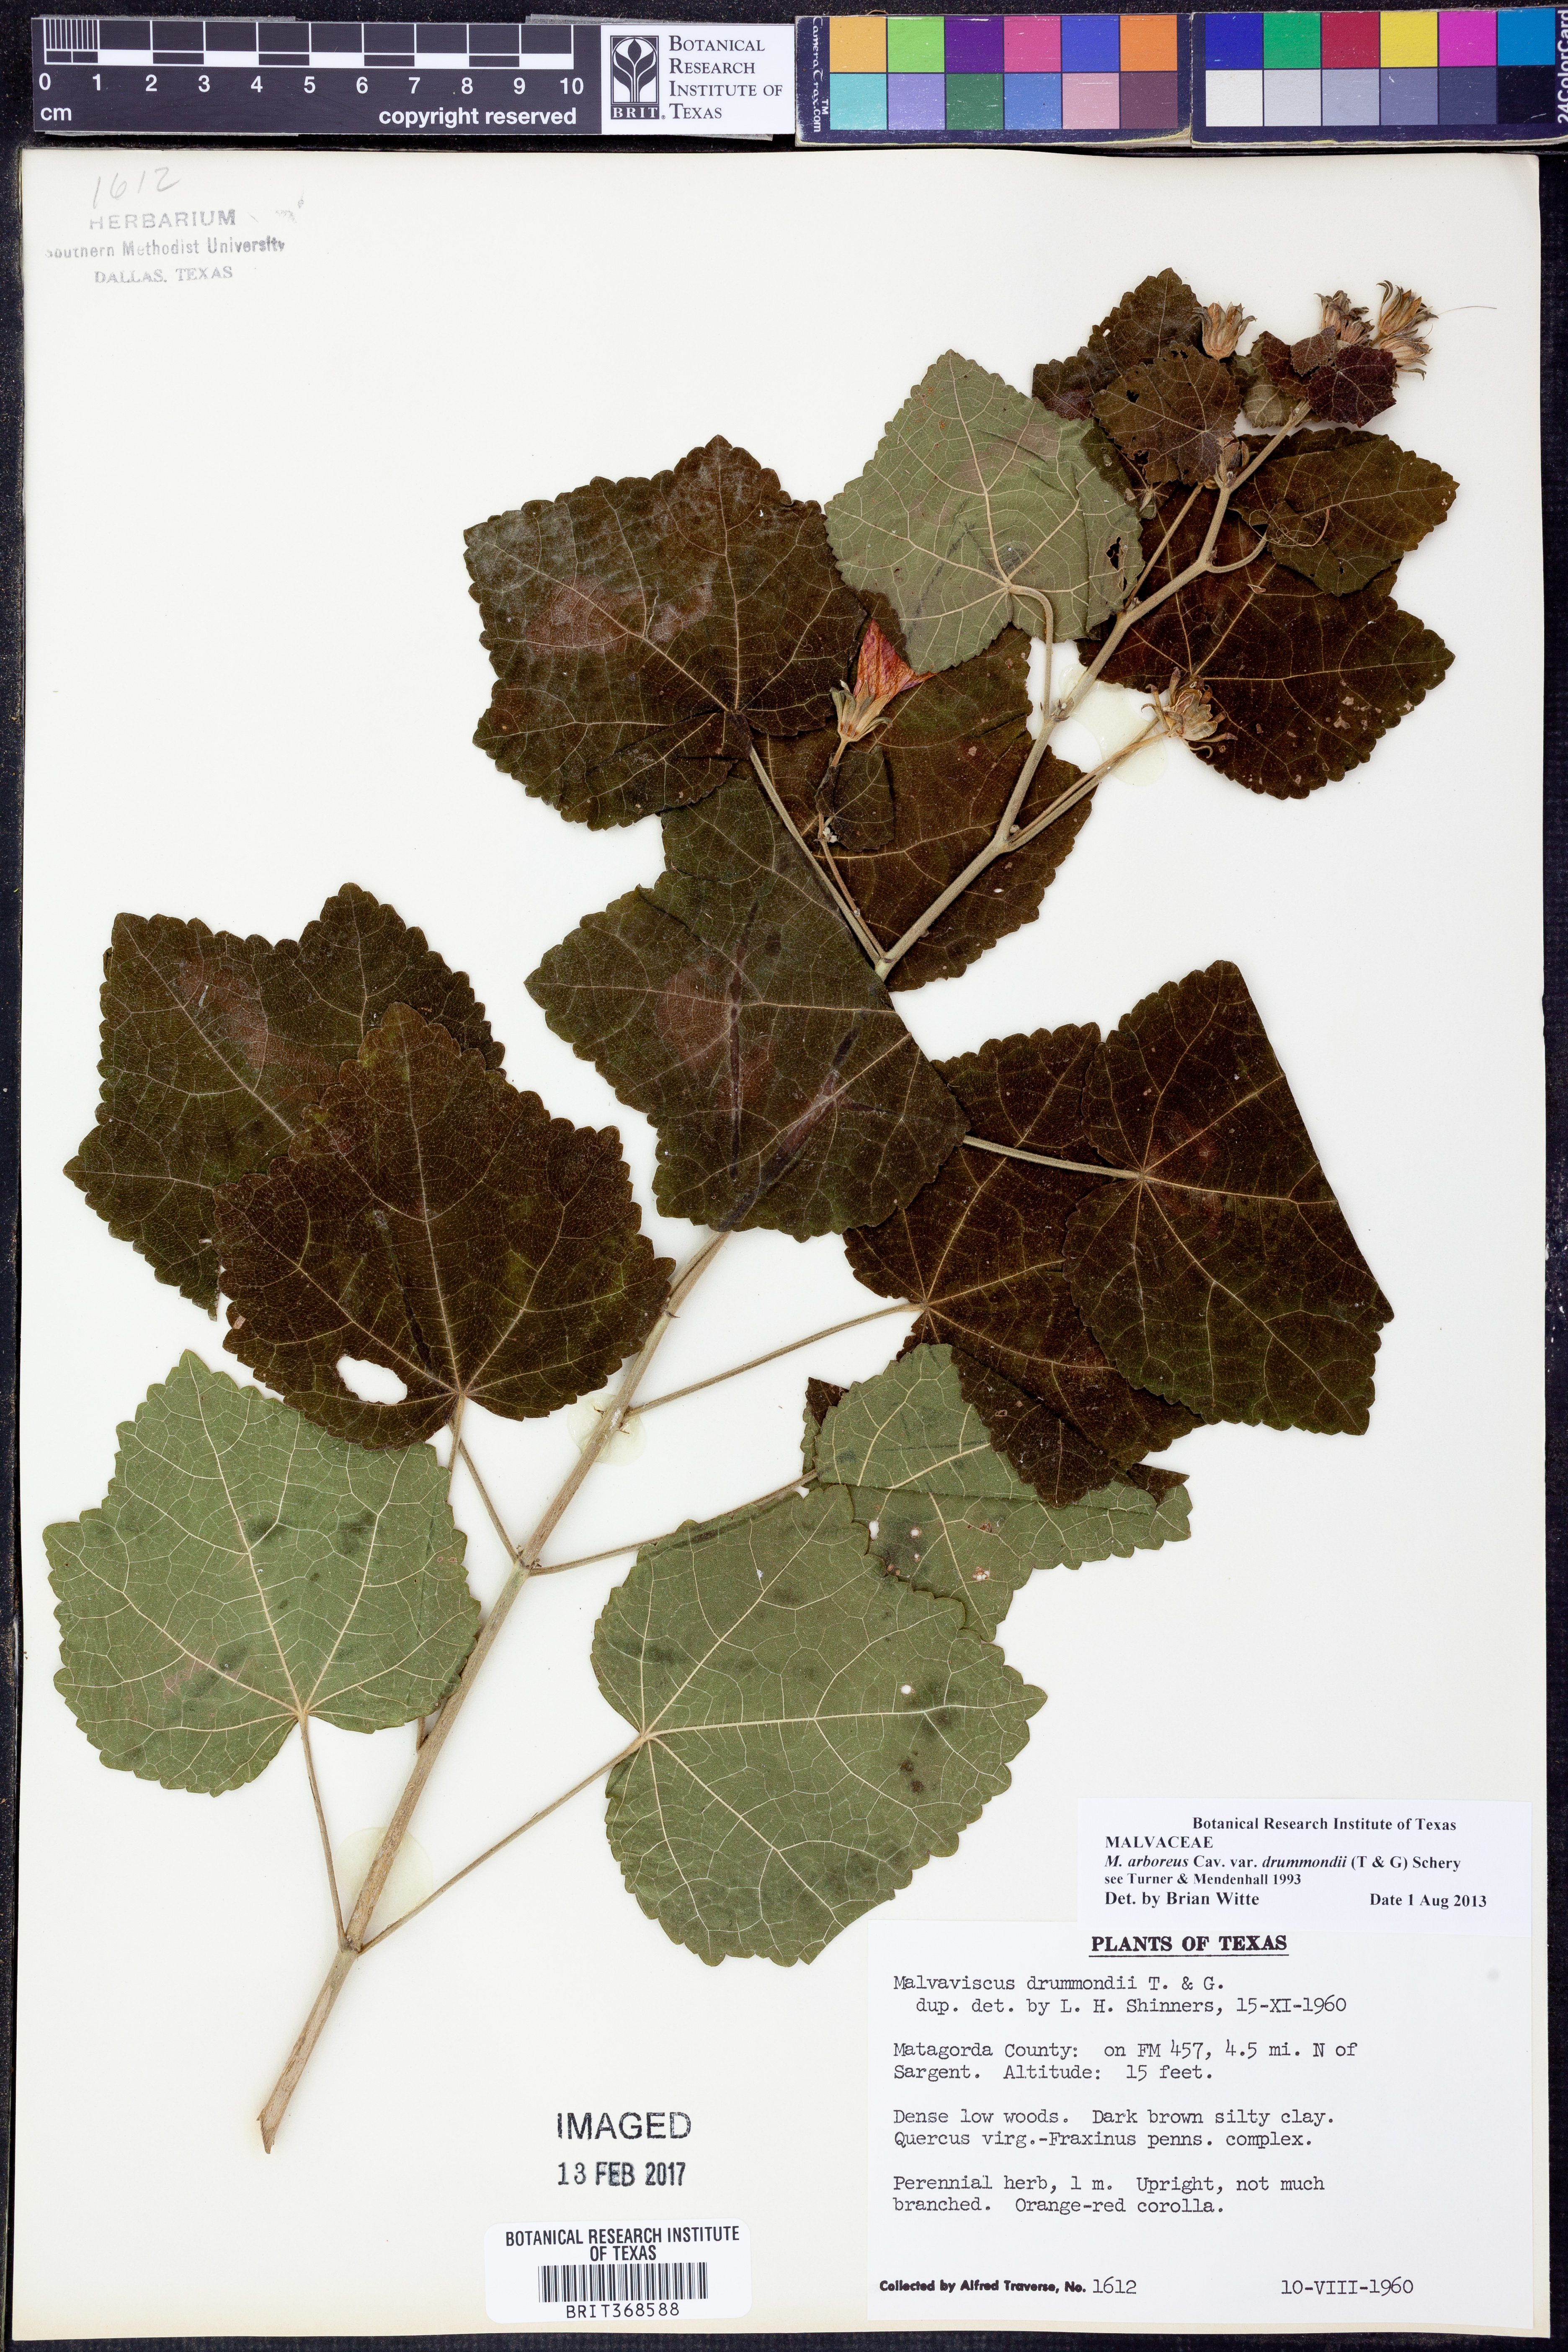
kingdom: Plantae
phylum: Tracheophyta
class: Magnoliopsida
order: Malvales
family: Malvaceae
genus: Malvaviscus
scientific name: Malvaviscus arboreus
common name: Wax mallow
